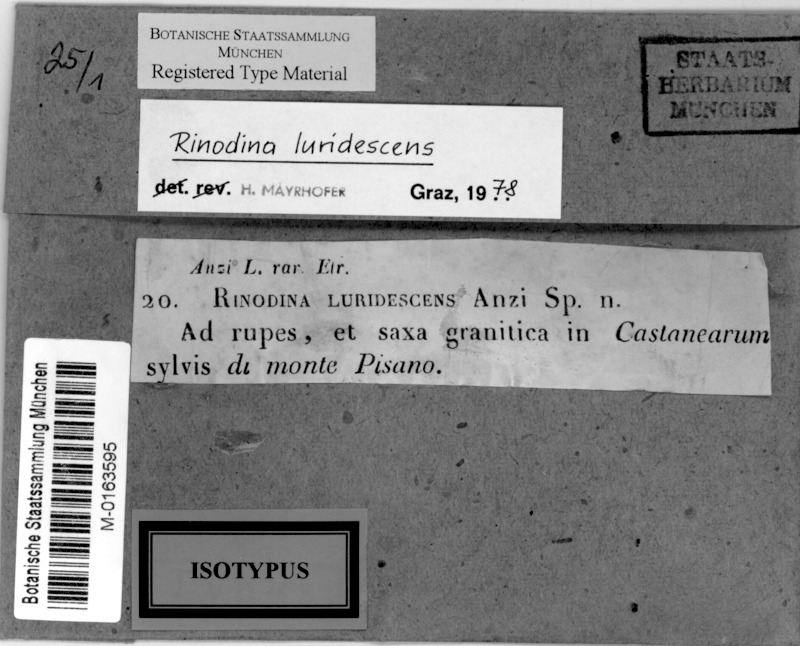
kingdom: Fungi
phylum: Ascomycota
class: Lecanoromycetes
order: Caliciales
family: Physciaceae
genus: Rinodina
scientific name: Rinodina luridescens
